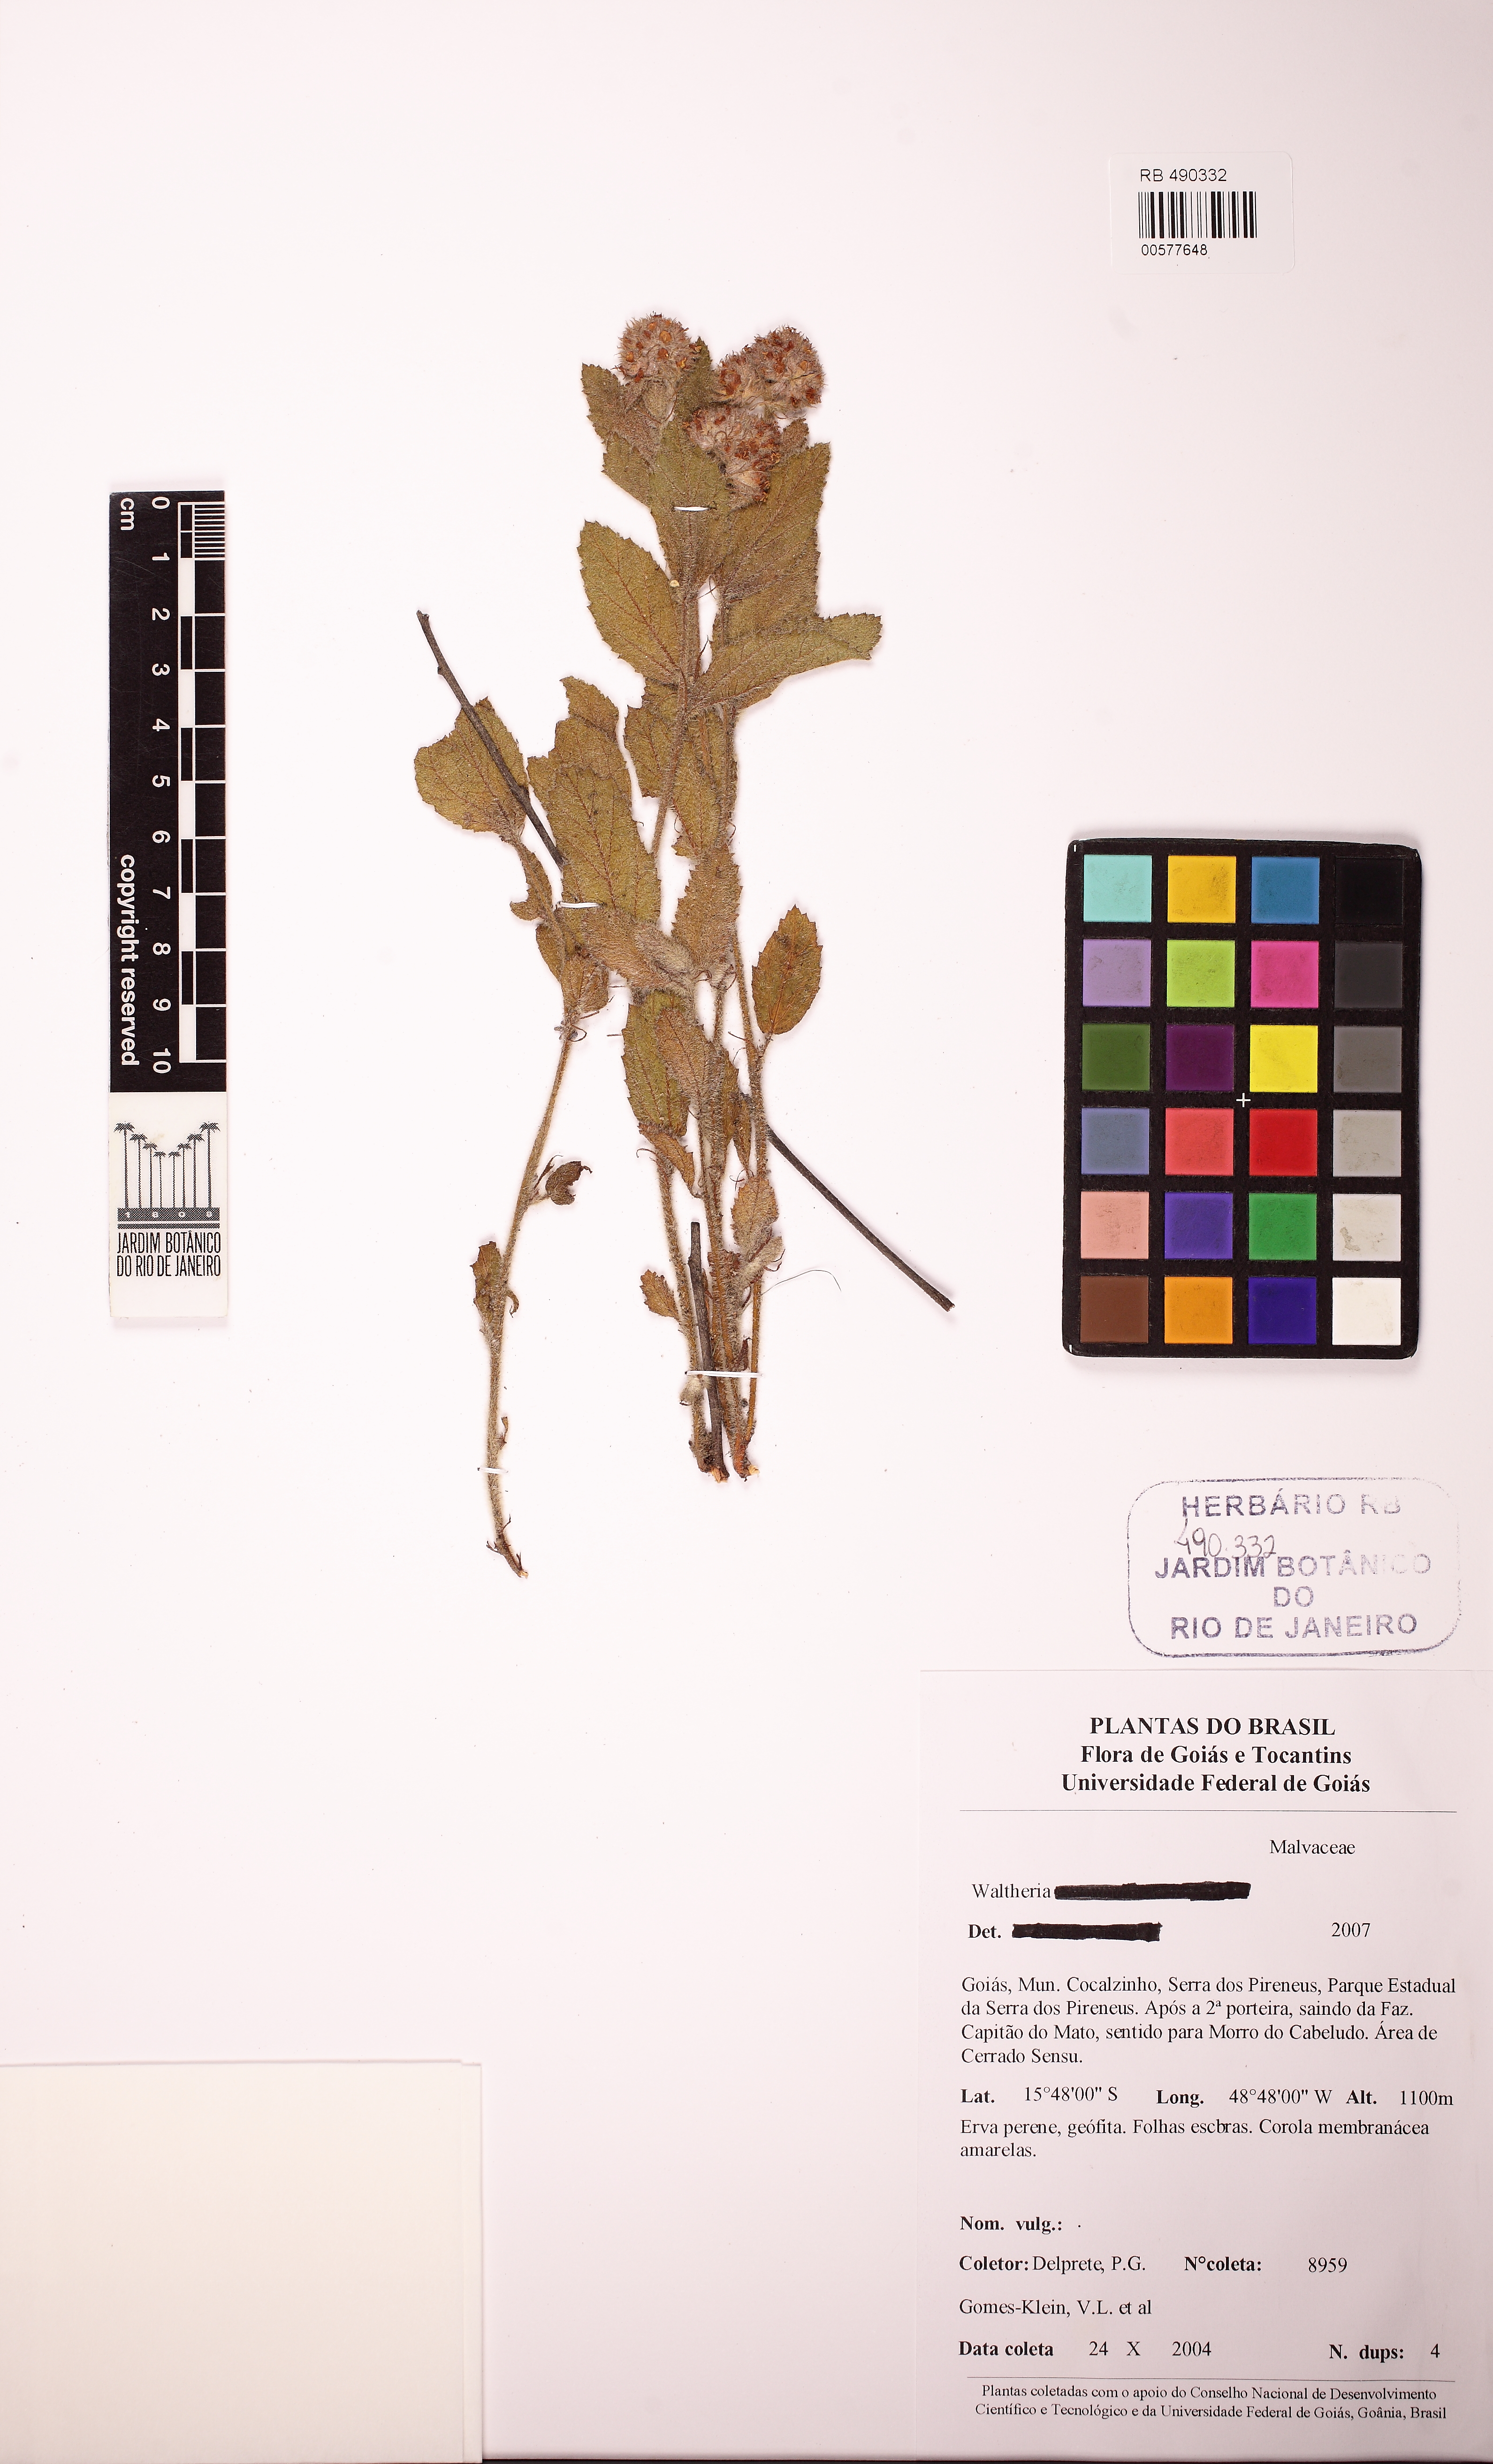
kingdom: Plantae
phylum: Tracheophyta
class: Magnoliopsida
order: Malvales
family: Malvaceae
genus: Waltheria
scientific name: Waltheria communis
